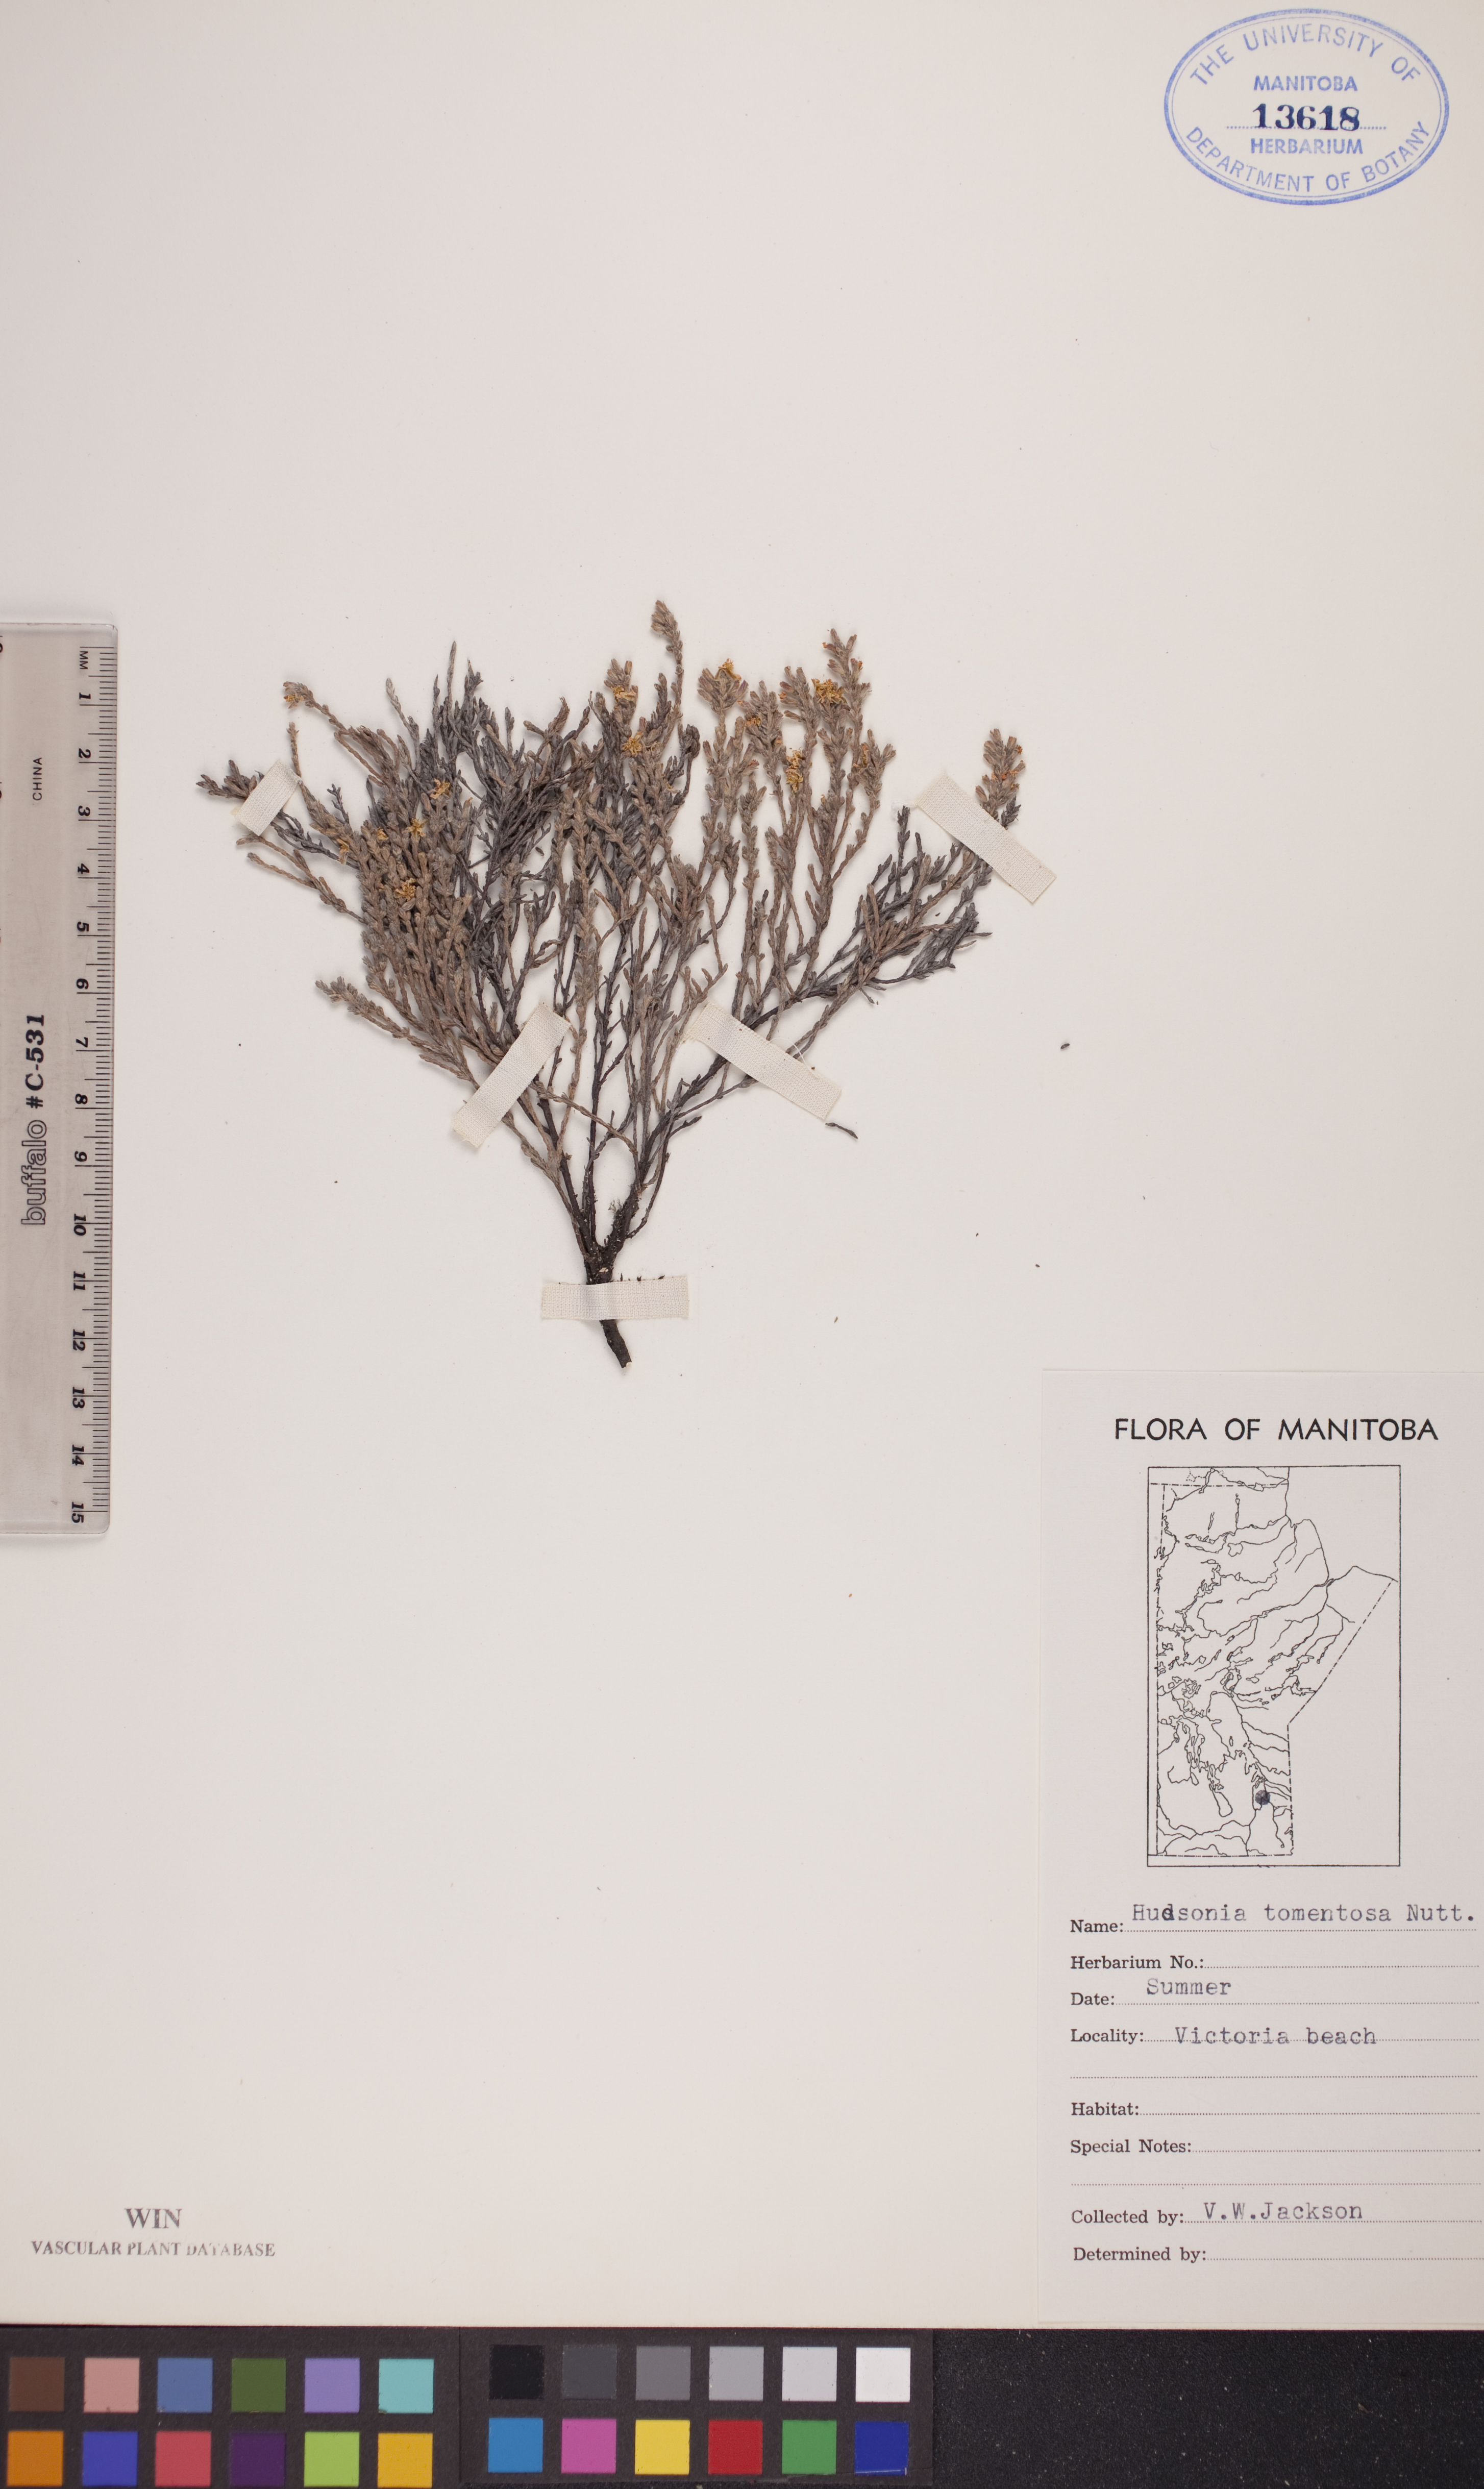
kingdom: Plantae
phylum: Tracheophyta
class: Magnoliopsida
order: Malvales
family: Cistaceae
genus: Hudsonia
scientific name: Hudsonia tomentosa
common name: Beach-heath
